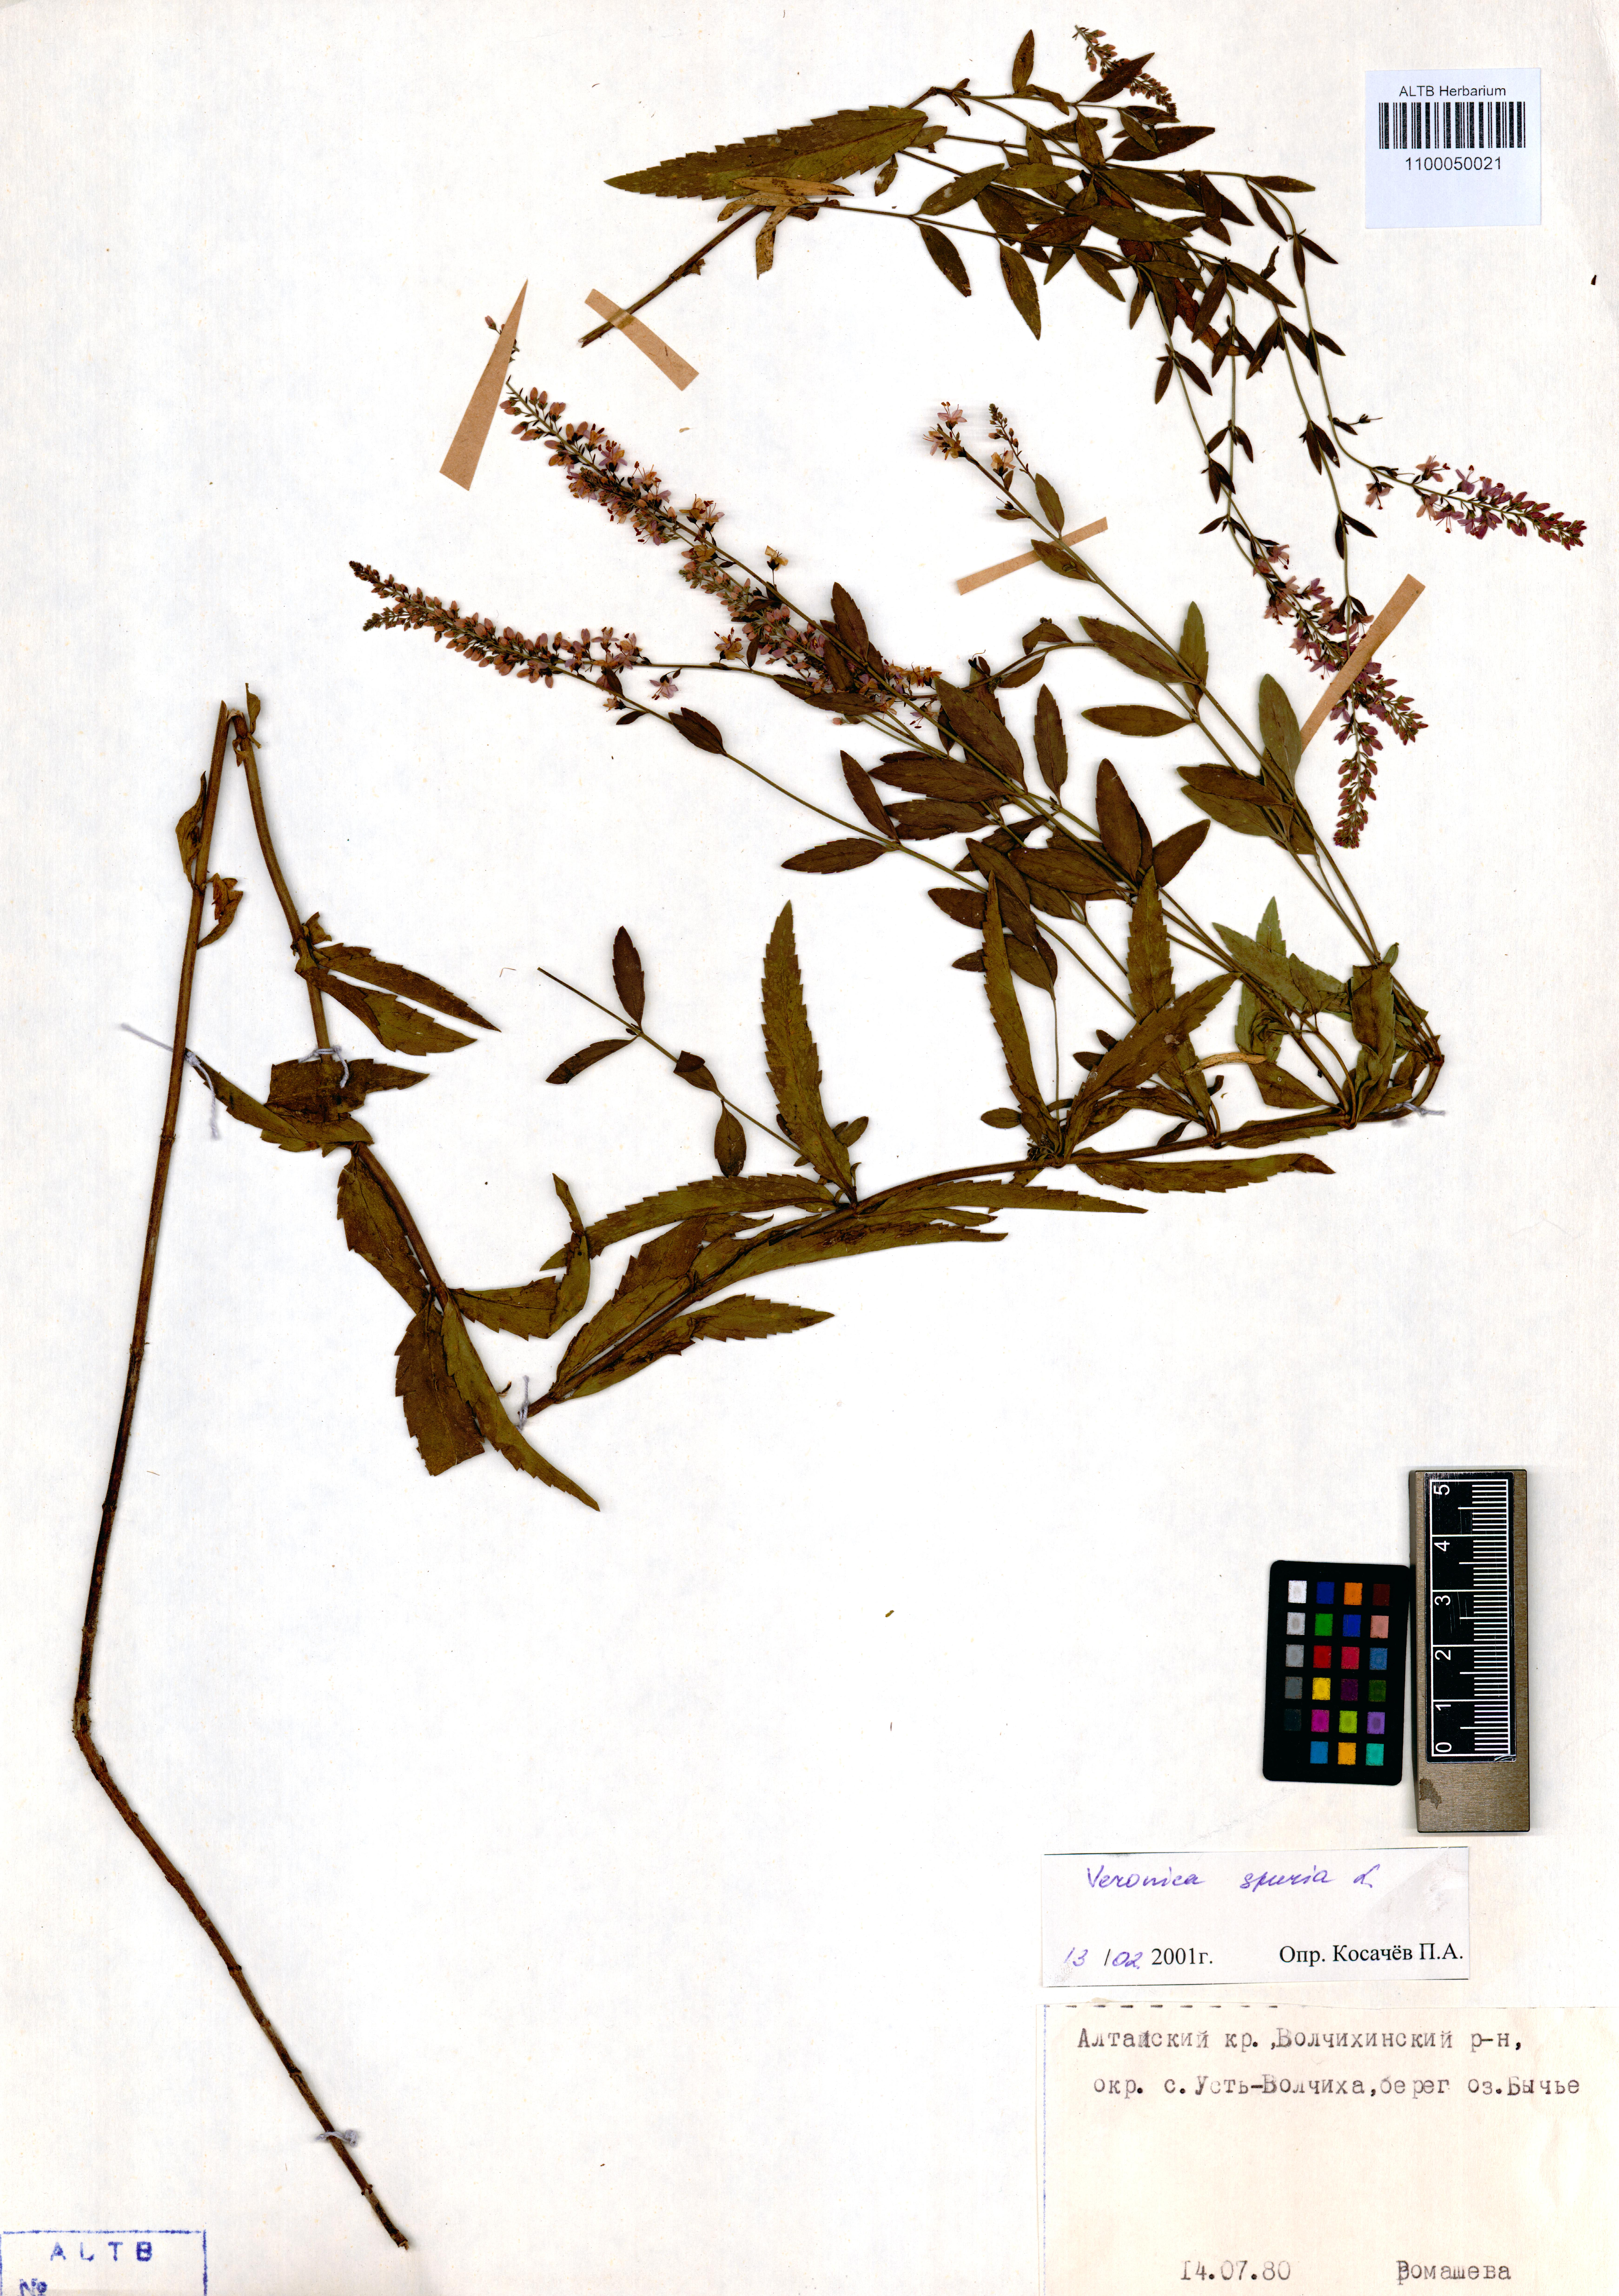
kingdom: Plantae
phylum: Tracheophyta
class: Magnoliopsida
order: Lamiales
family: Plantaginaceae
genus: Veronica
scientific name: Veronica spuria
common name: Bastard speedwell
